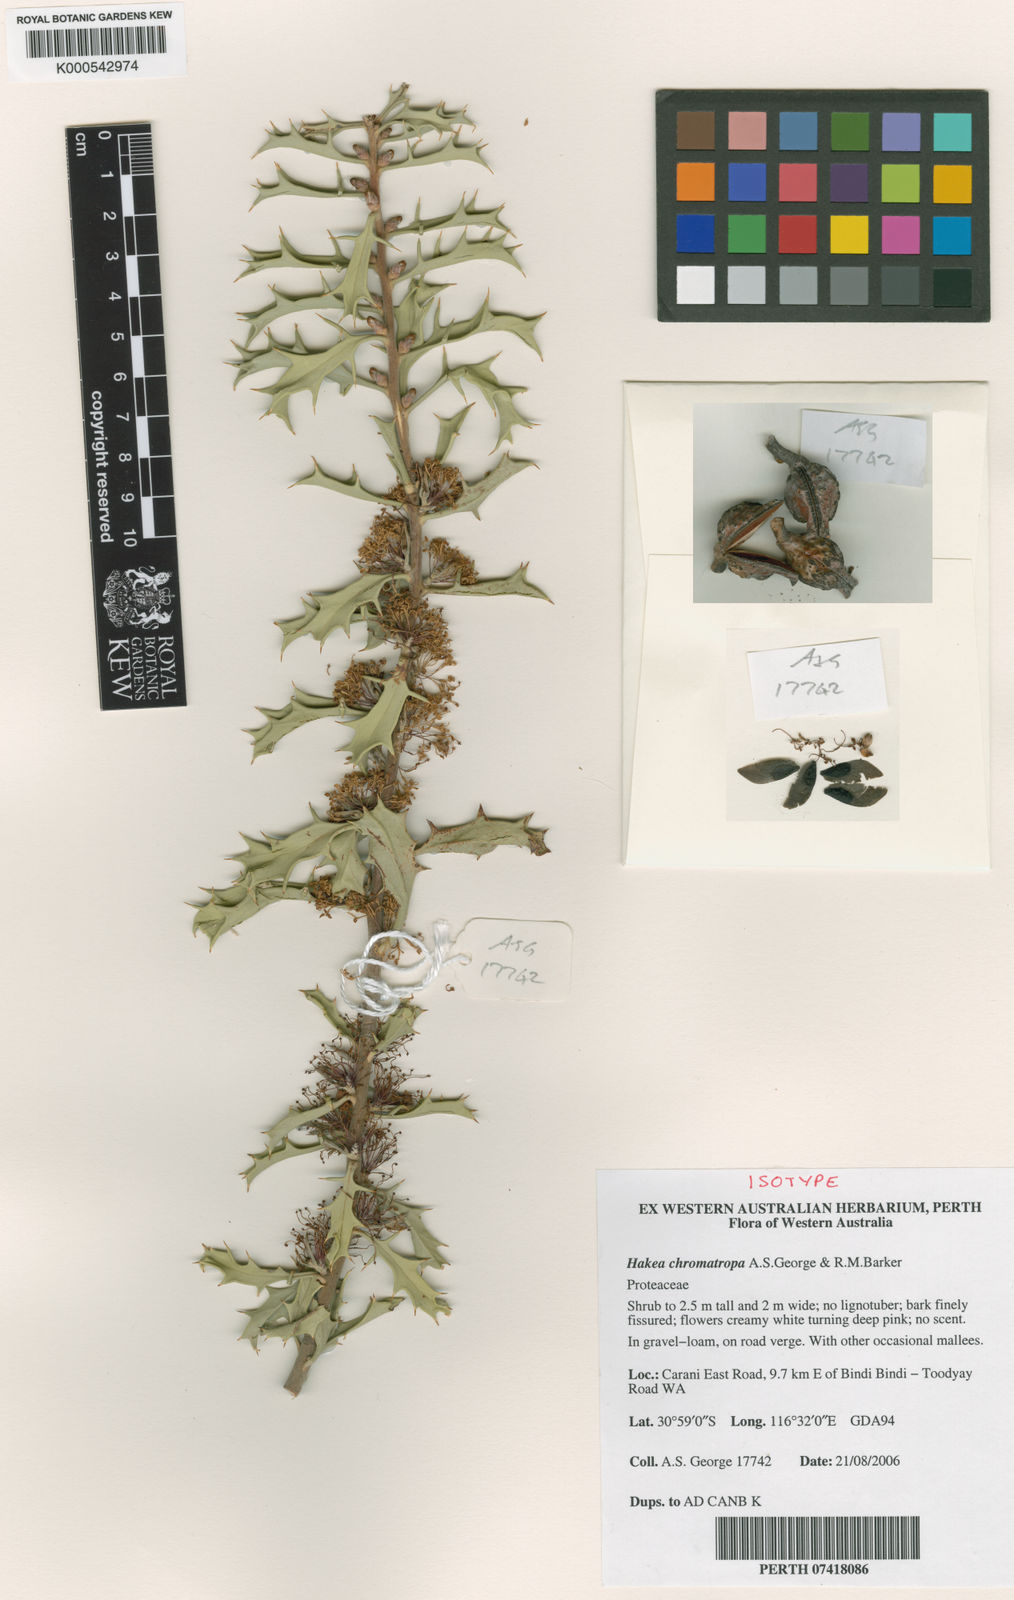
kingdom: Plantae
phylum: Tracheophyta
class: Magnoliopsida
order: Proteales
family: Proteaceae
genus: Hakea
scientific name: Hakea chromatropa
